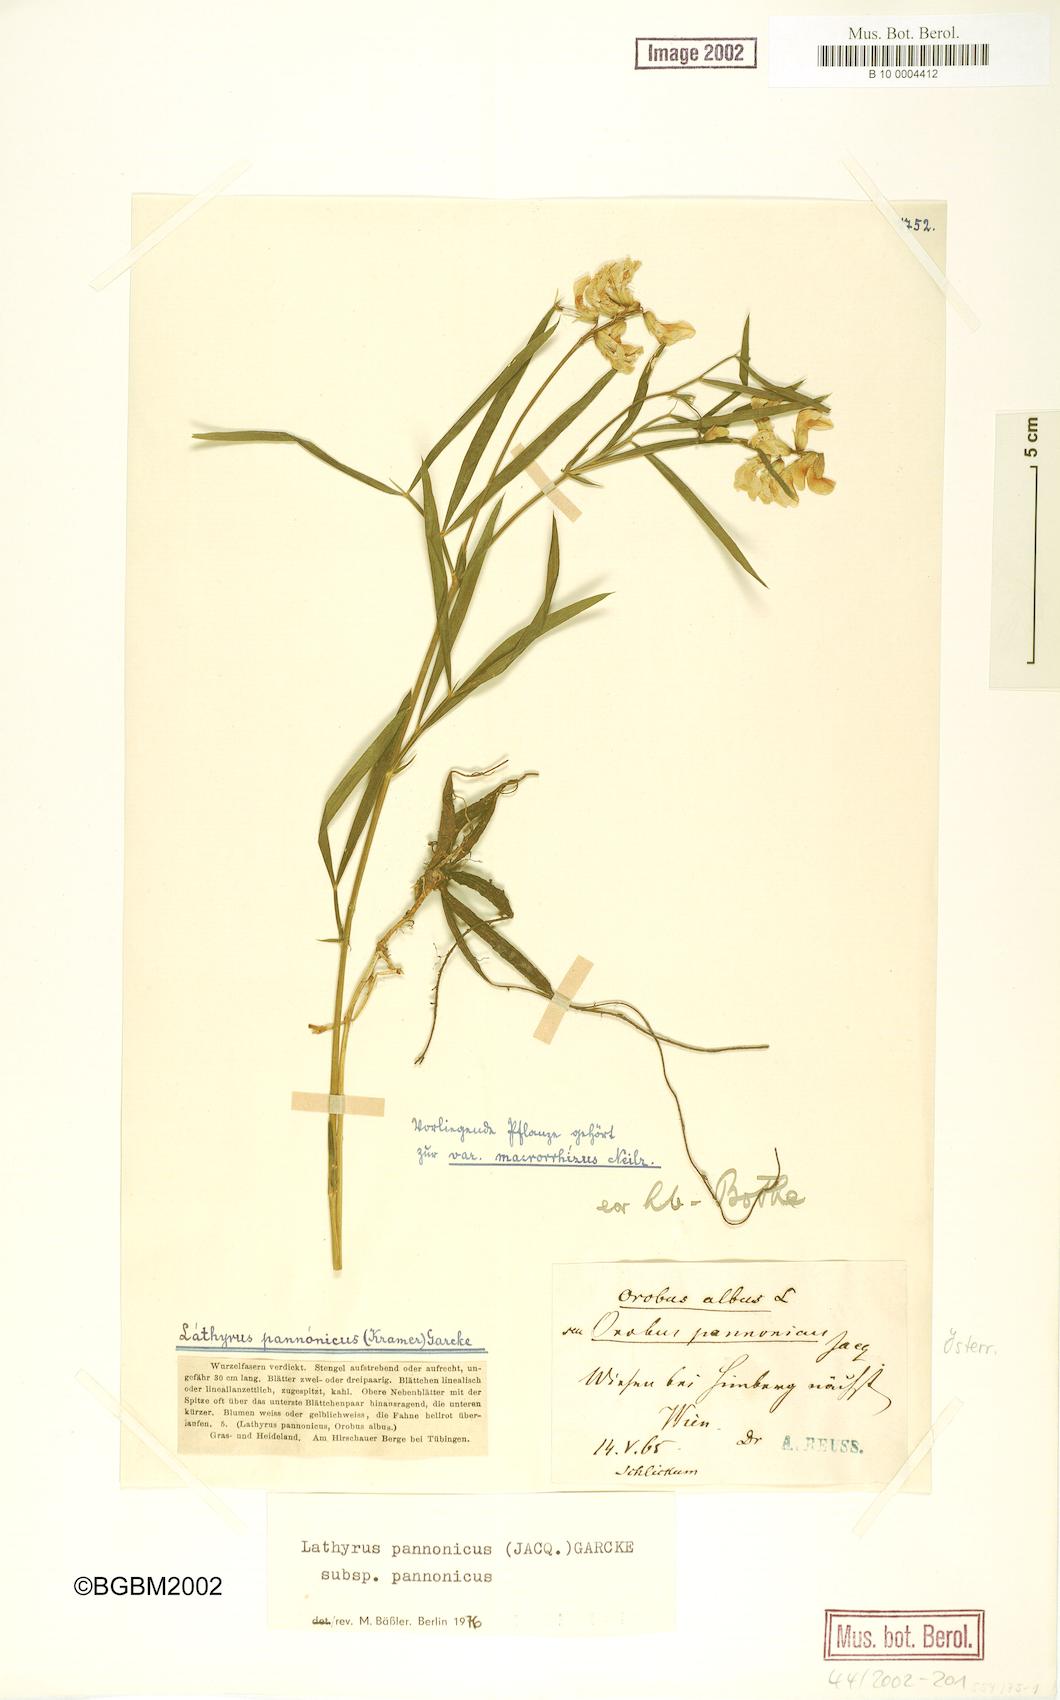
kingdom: Plantae
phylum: Tracheophyta
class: Magnoliopsida
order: Fabales
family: Fabaceae
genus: Lathyrus
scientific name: Lathyrus pannonicus
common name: Pea
